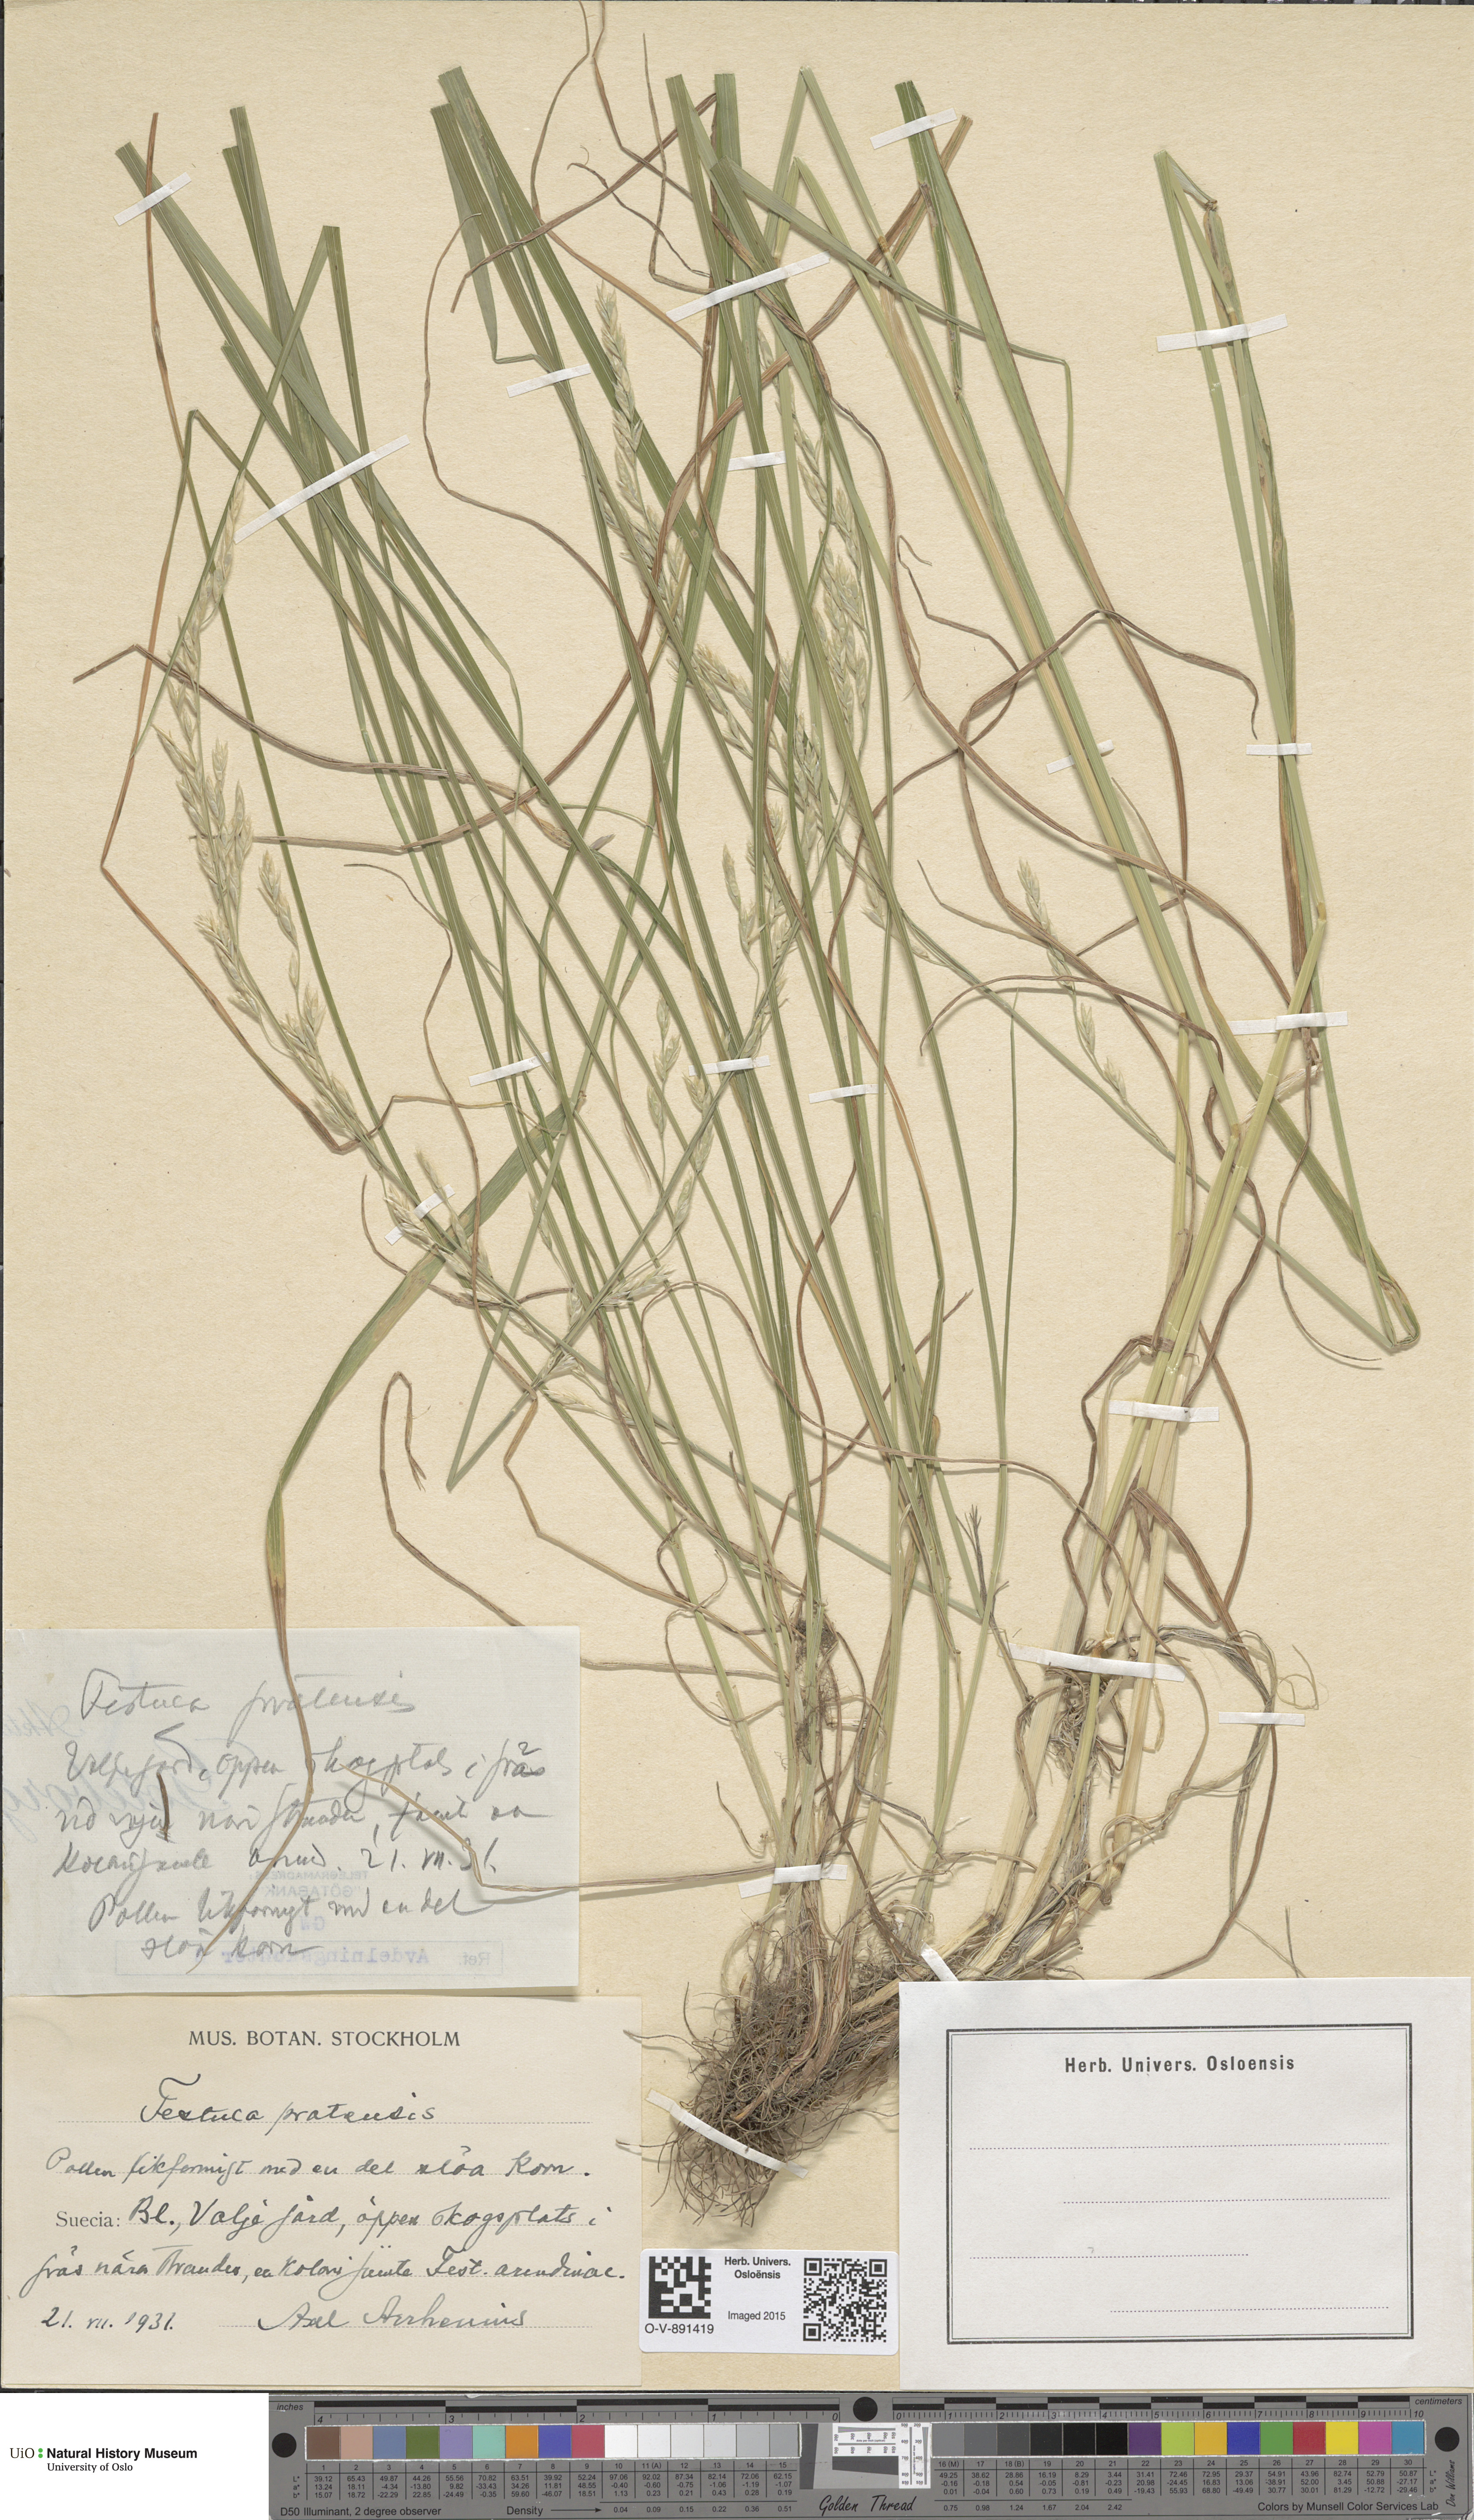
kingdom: Plantae
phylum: Tracheophyta
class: Liliopsida
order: Poales
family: Poaceae
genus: Lolium
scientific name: Lolium pratense
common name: Dover grass
